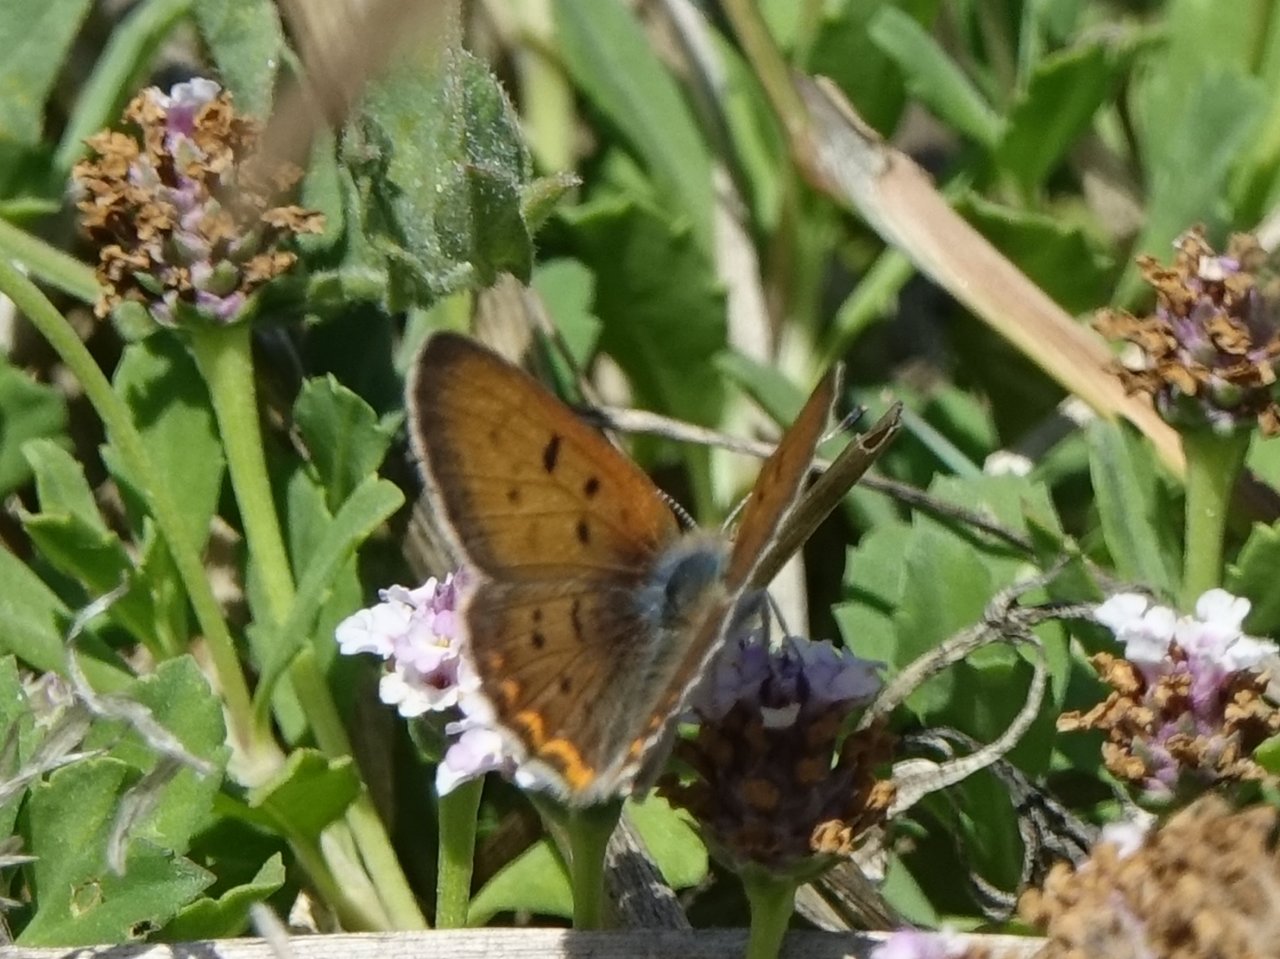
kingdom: Animalia
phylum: Arthropoda
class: Insecta
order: Lepidoptera
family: Sesiidae
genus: Sesia
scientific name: Sesia Lycaena helloides
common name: Purplish Copper
